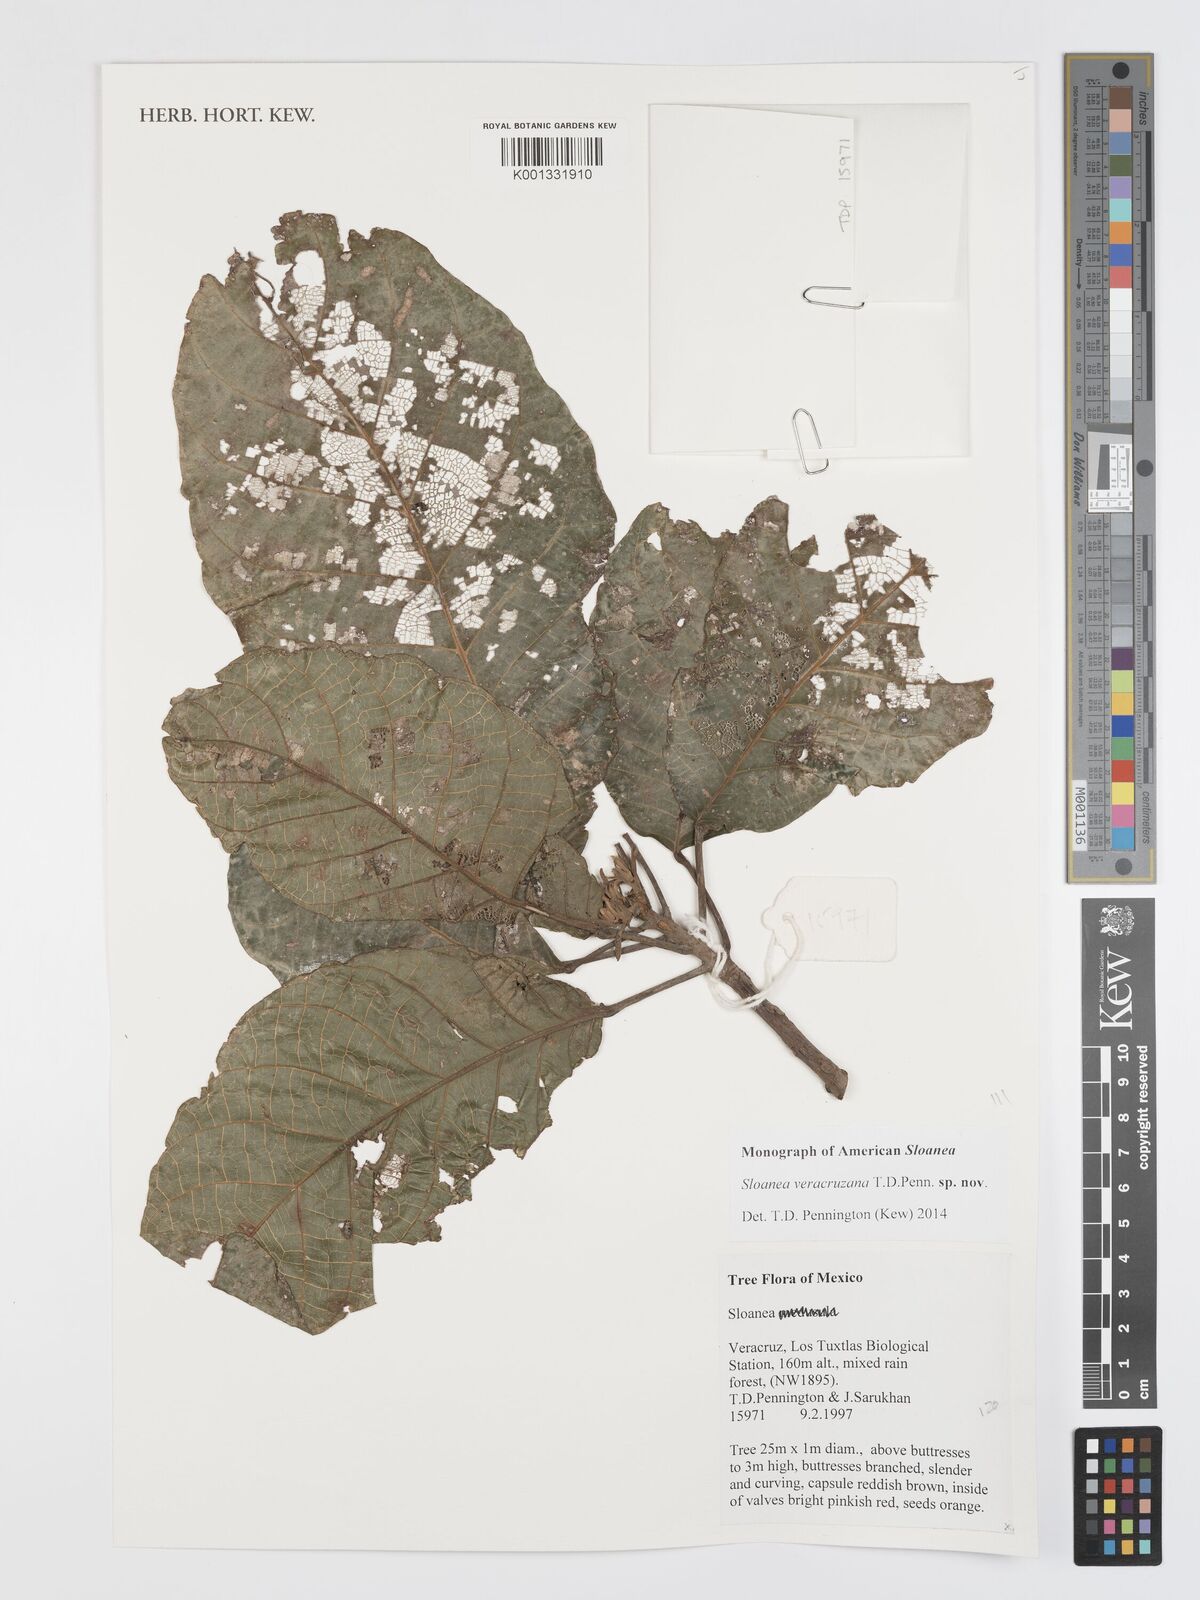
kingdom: Plantae
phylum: Tracheophyta
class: Magnoliopsida
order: Oxalidales
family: Elaeocarpaceae
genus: Sloanea
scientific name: Sloanea veracruzana
